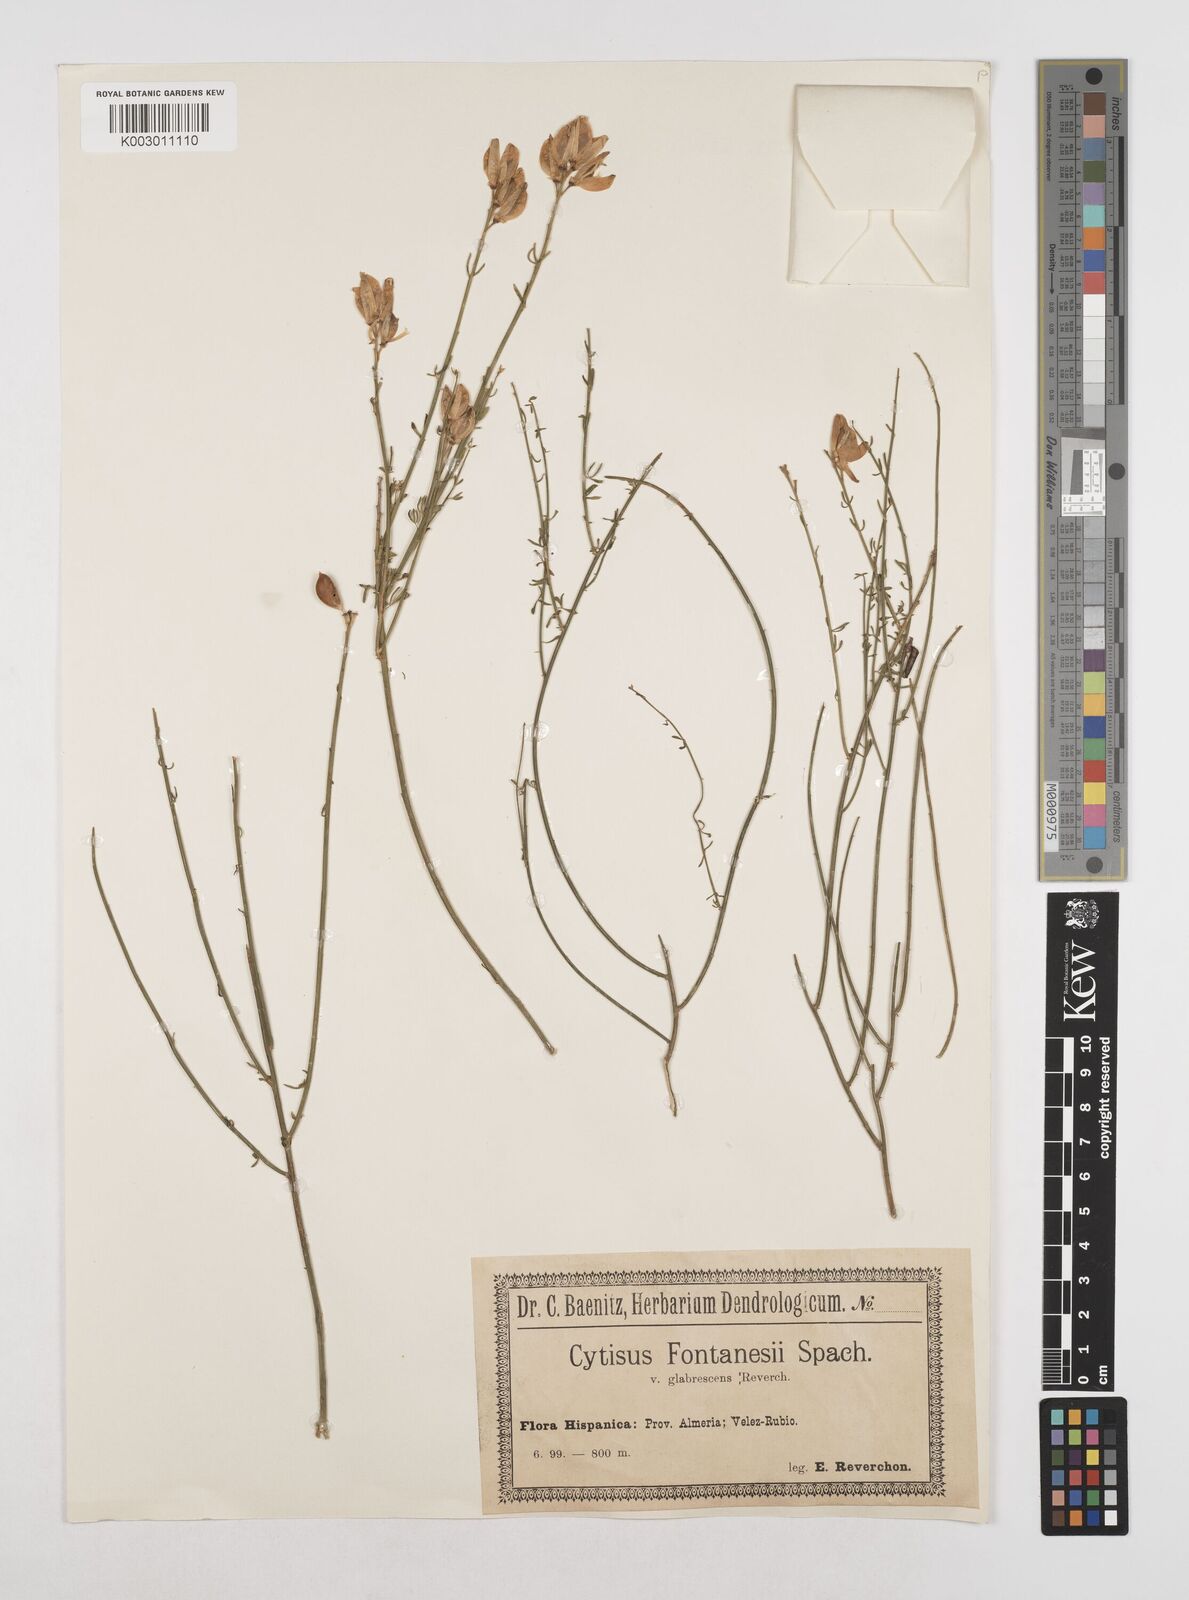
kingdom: Plantae
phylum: Tracheophyta
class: Magnoliopsida
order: Fabales
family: Fabaceae
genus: Cytisus
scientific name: Cytisus fontanesii
